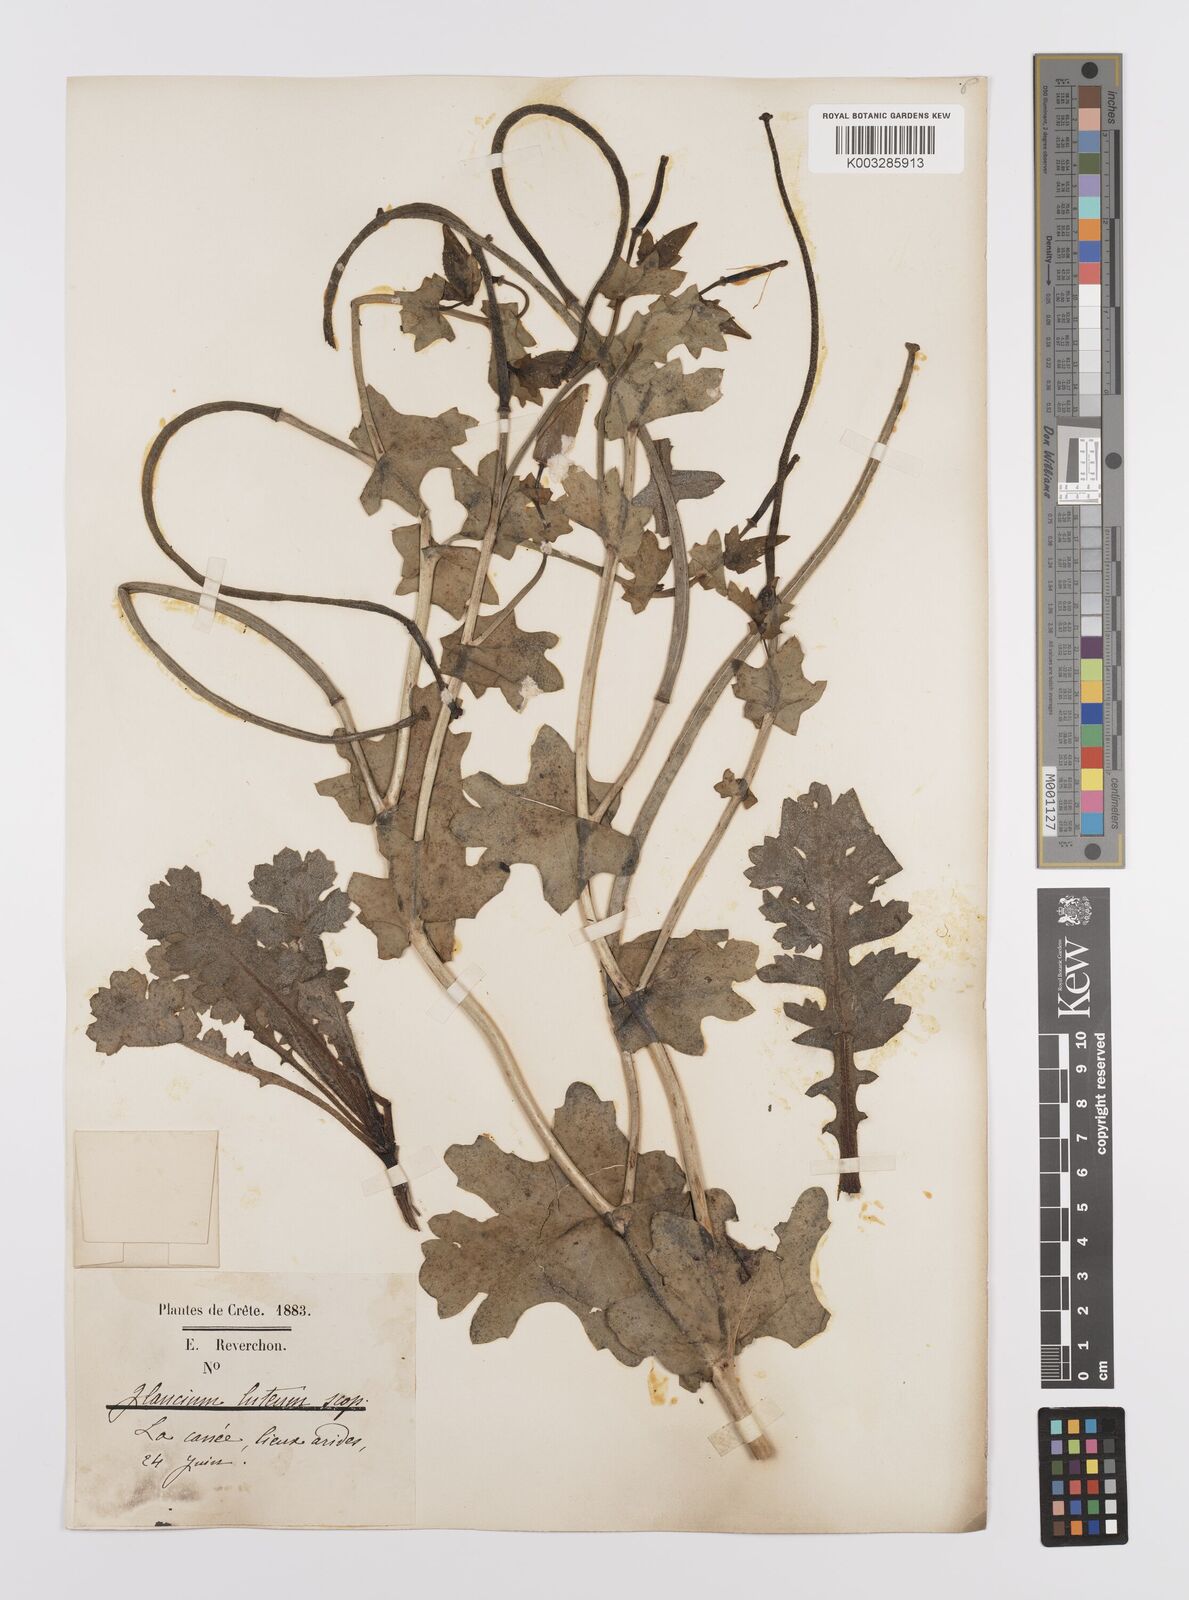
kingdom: Plantae
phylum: Tracheophyta
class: Magnoliopsida
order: Ranunculales
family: Papaveraceae
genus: Glaucium
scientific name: Glaucium flavum
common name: Yellow horned-poppy
